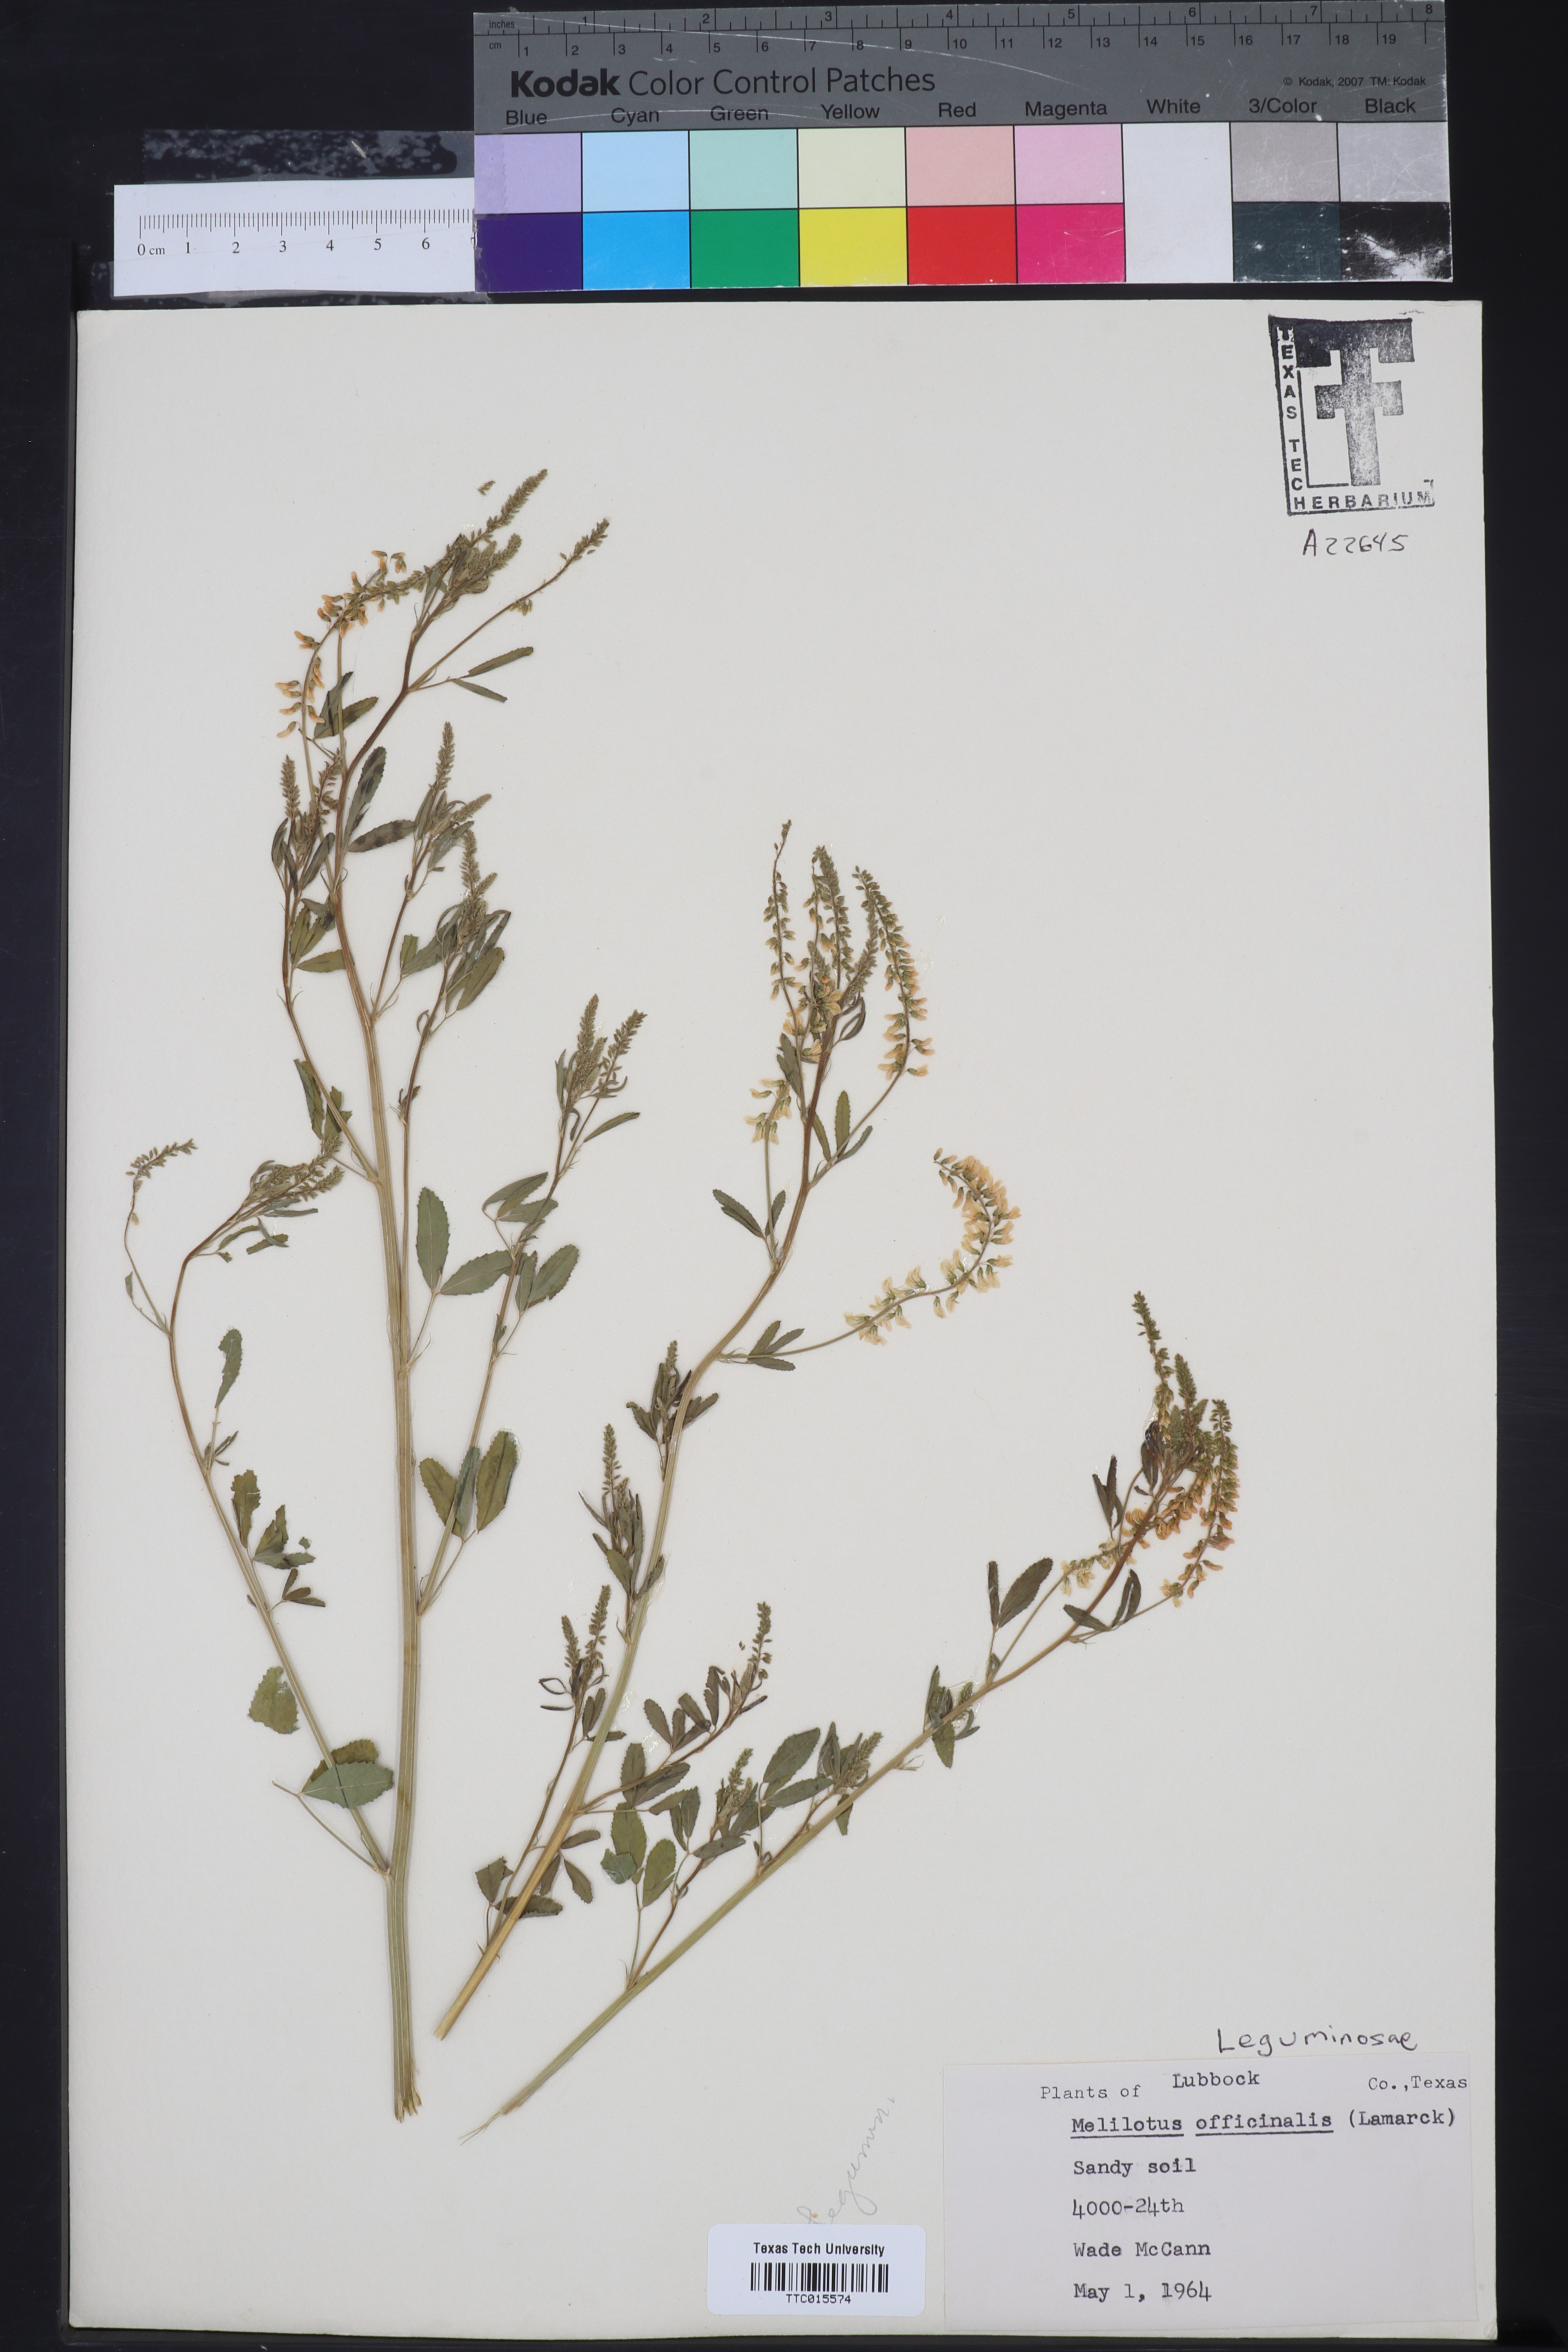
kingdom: Plantae
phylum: Tracheophyta
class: Magnoliopsida
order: Fabales
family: Fabaceae
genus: Melilotus
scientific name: Melilotus officinalis
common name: Sweetclover
